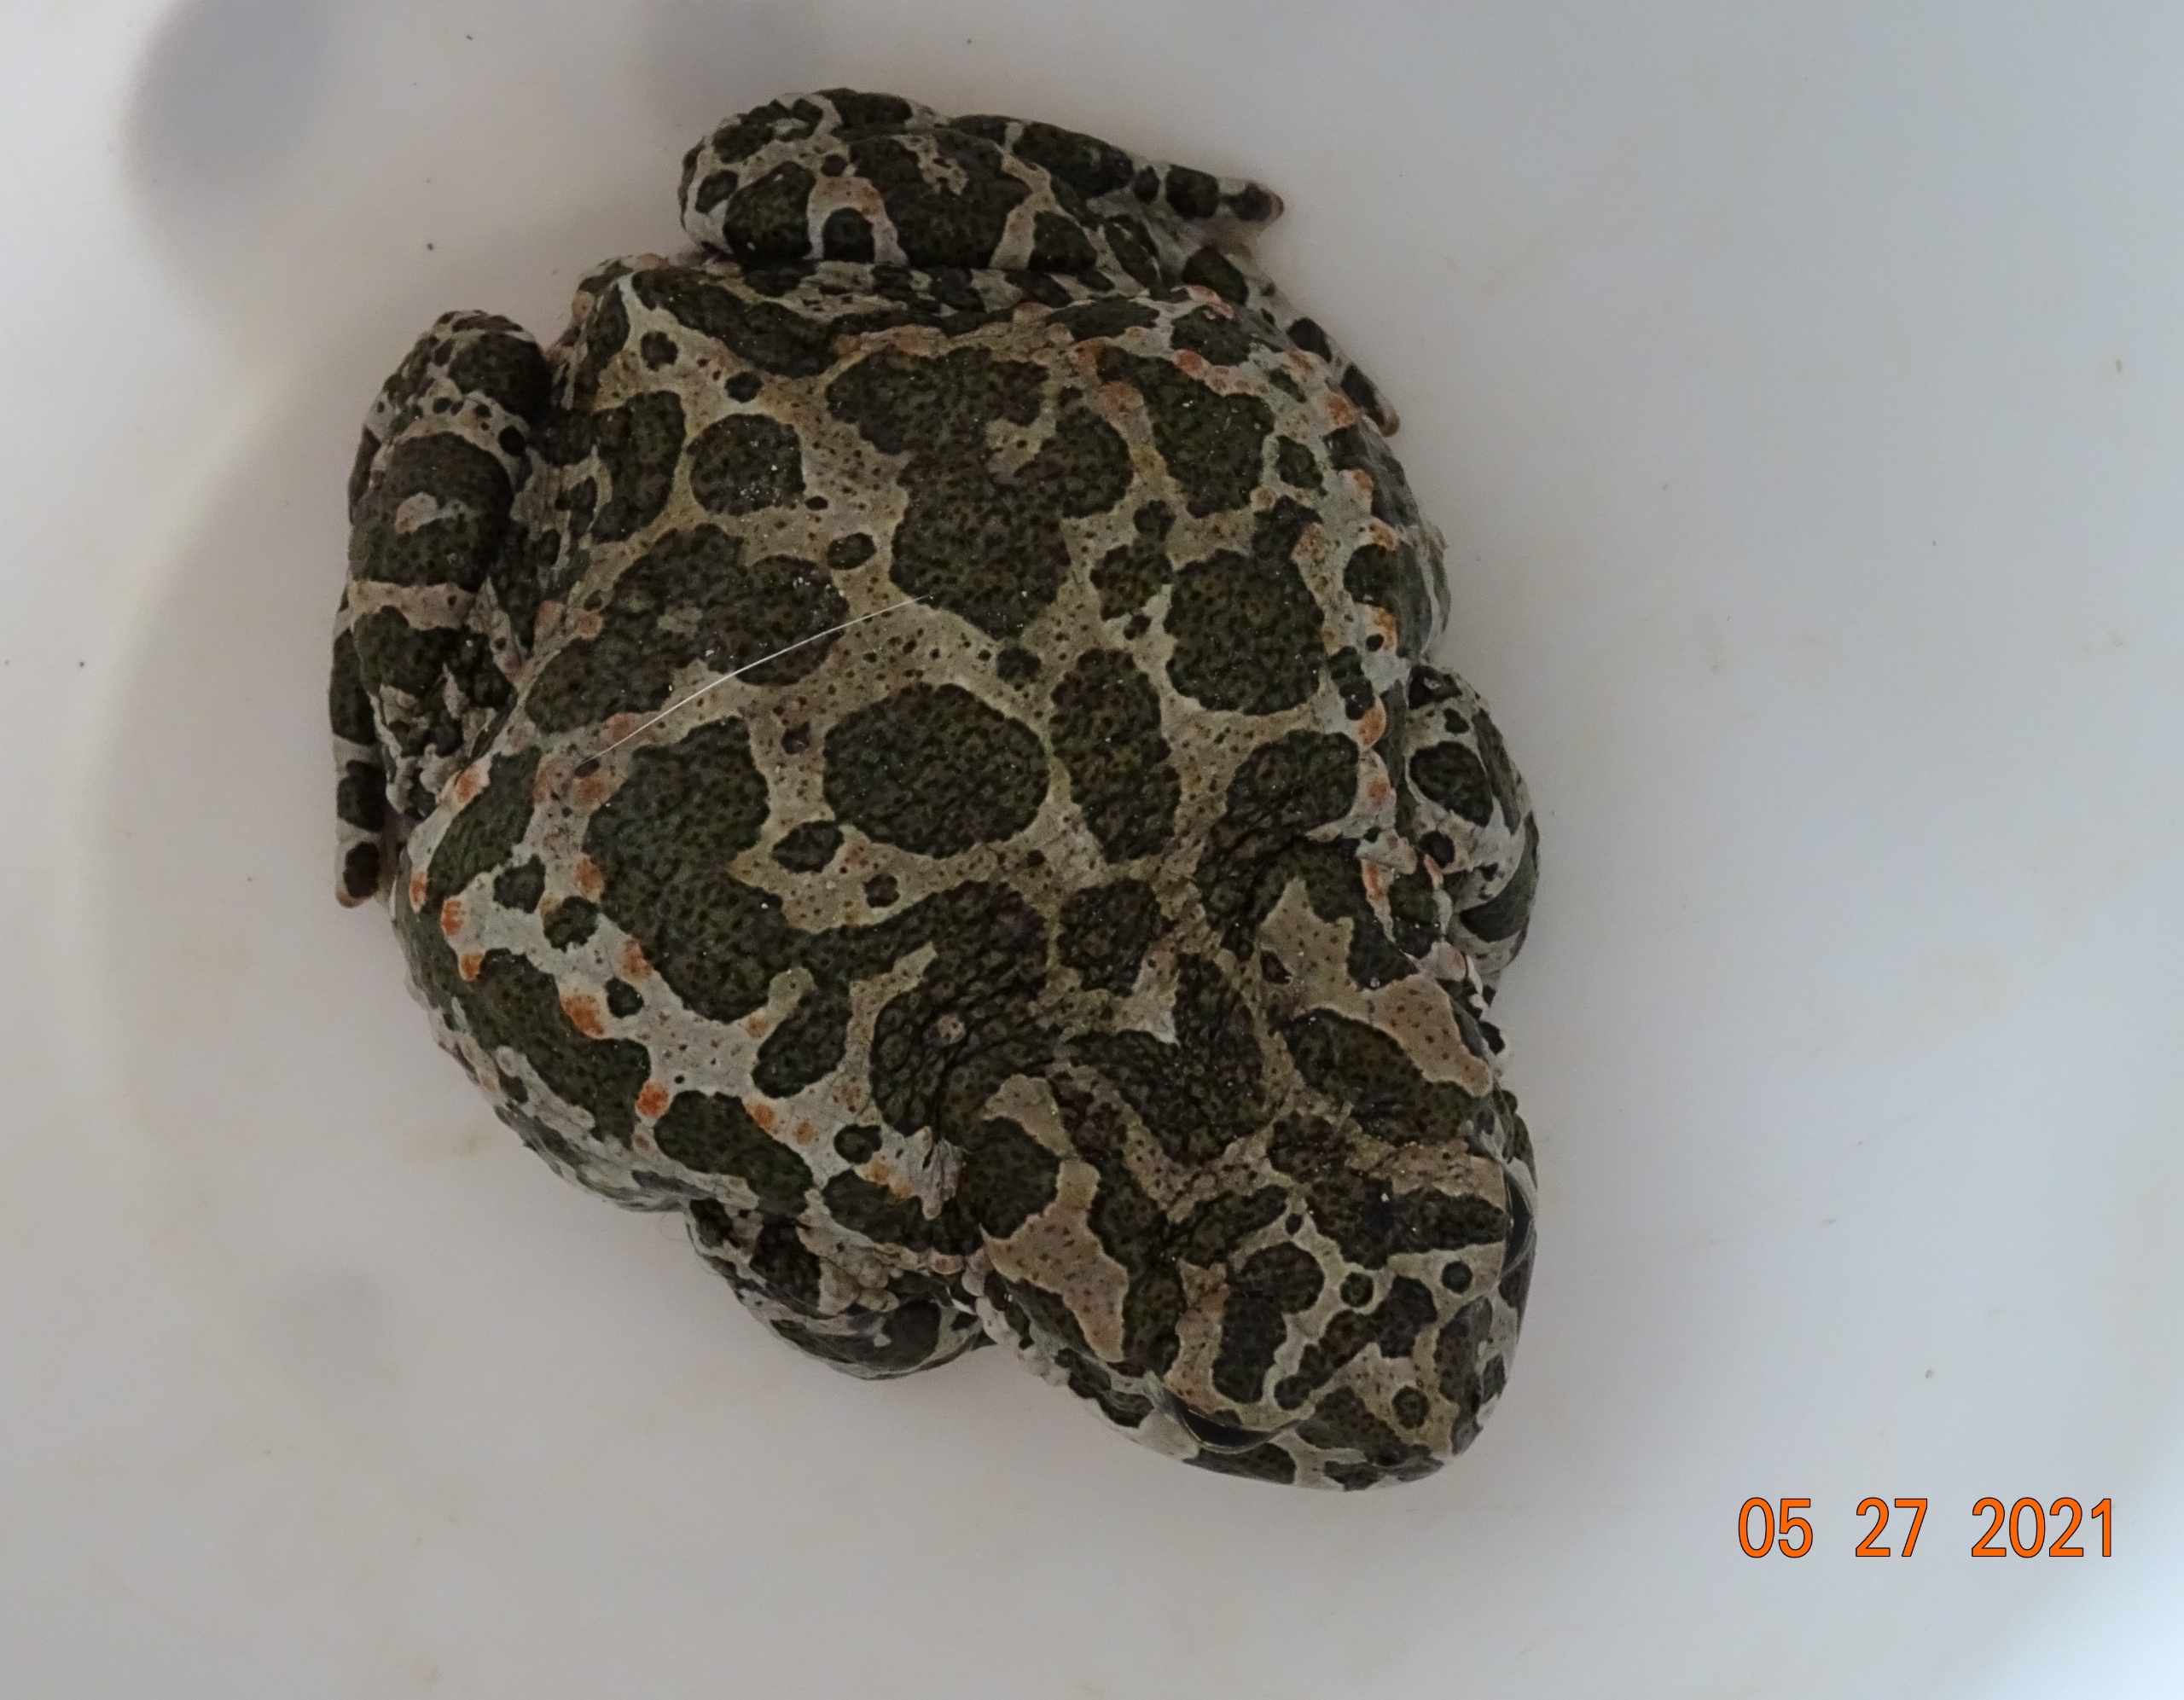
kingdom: Animalia
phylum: Chordata
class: Amphibia
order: Anura
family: Bufonidae
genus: Bufotes
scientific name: Bufotes viridis
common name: Grønbroget tudse
